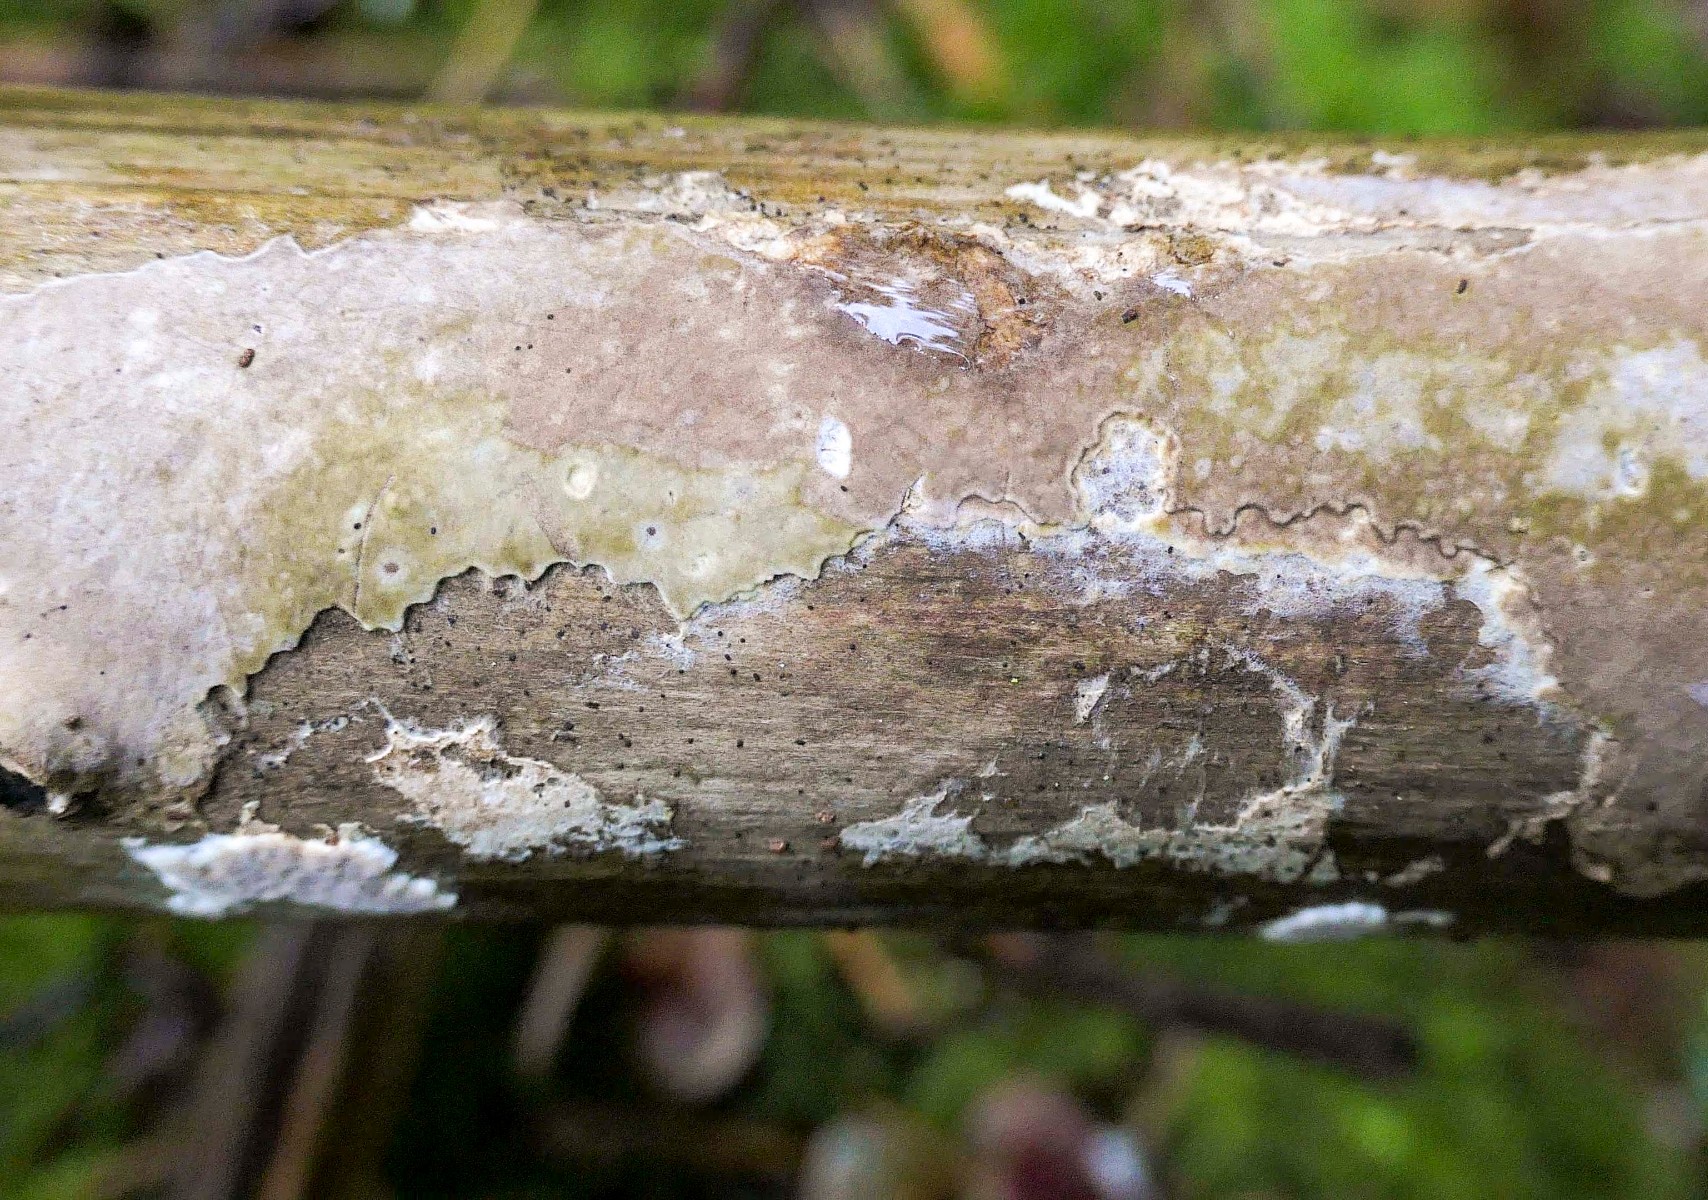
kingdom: Fungi
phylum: Basidiomycota
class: Agaricomycetes
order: Boletales
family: Coniophoraceae
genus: Coniophora
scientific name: Coniophora arida
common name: tynd tømmersvamp
